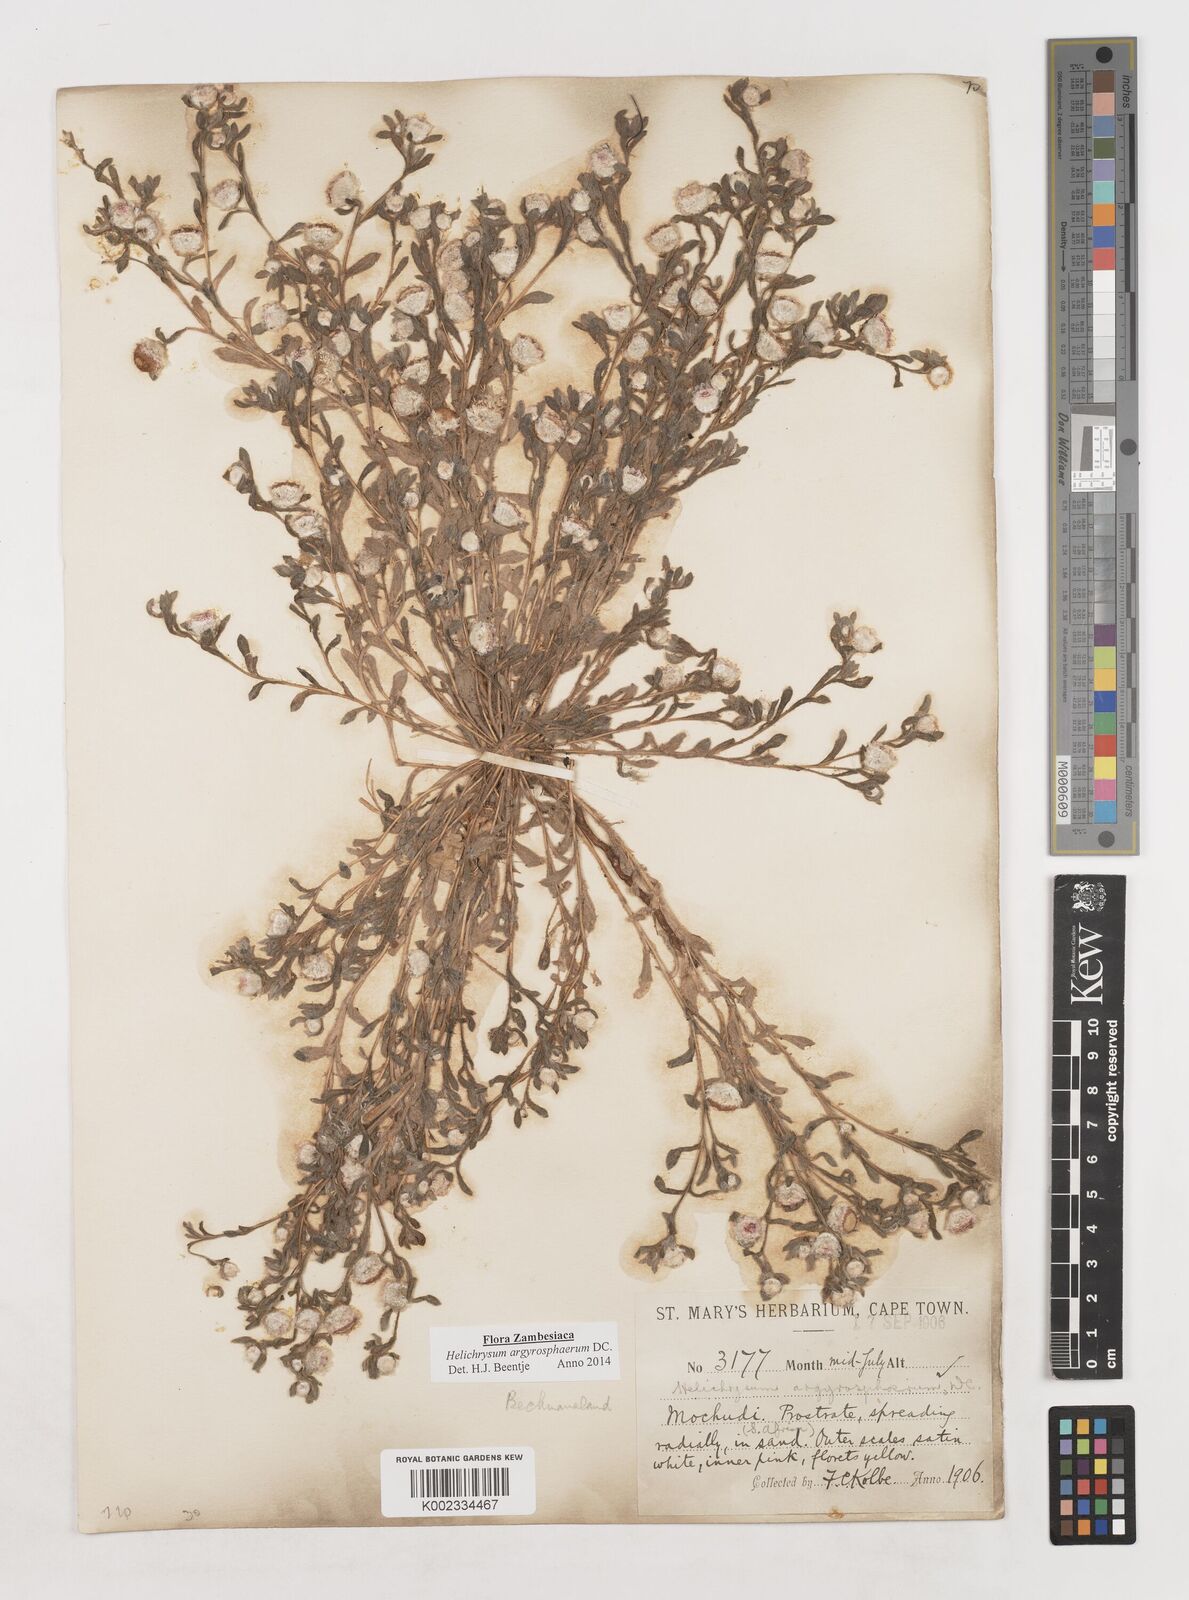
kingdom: Plantae
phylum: Tracheophyta
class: Magnoliopsida
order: Asterales
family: Asteraceae
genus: Helichrysum
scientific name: Helichrysum argyrosphaerum
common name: Wild everlasting
